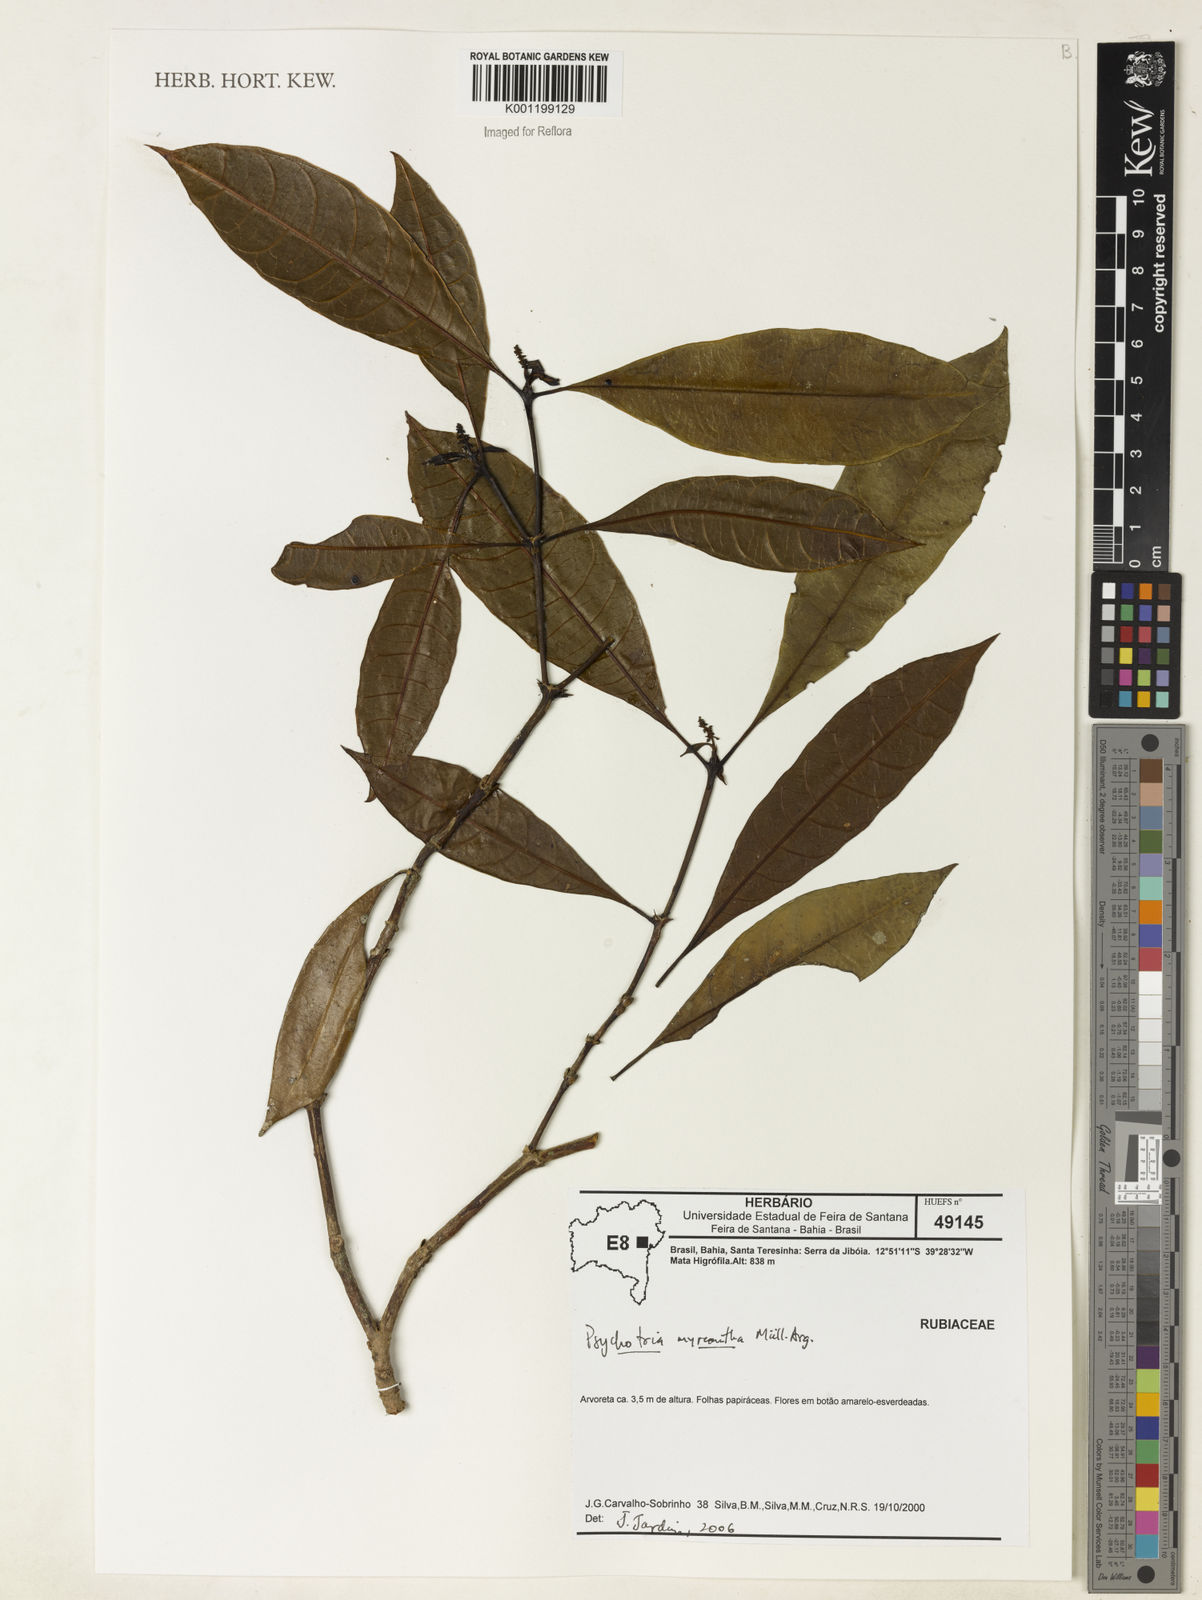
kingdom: Plantae
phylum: Tracheophyta
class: Magnoliopsida
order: Gentianales
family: Rubiaceae
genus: Psychotria
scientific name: Psychotria
